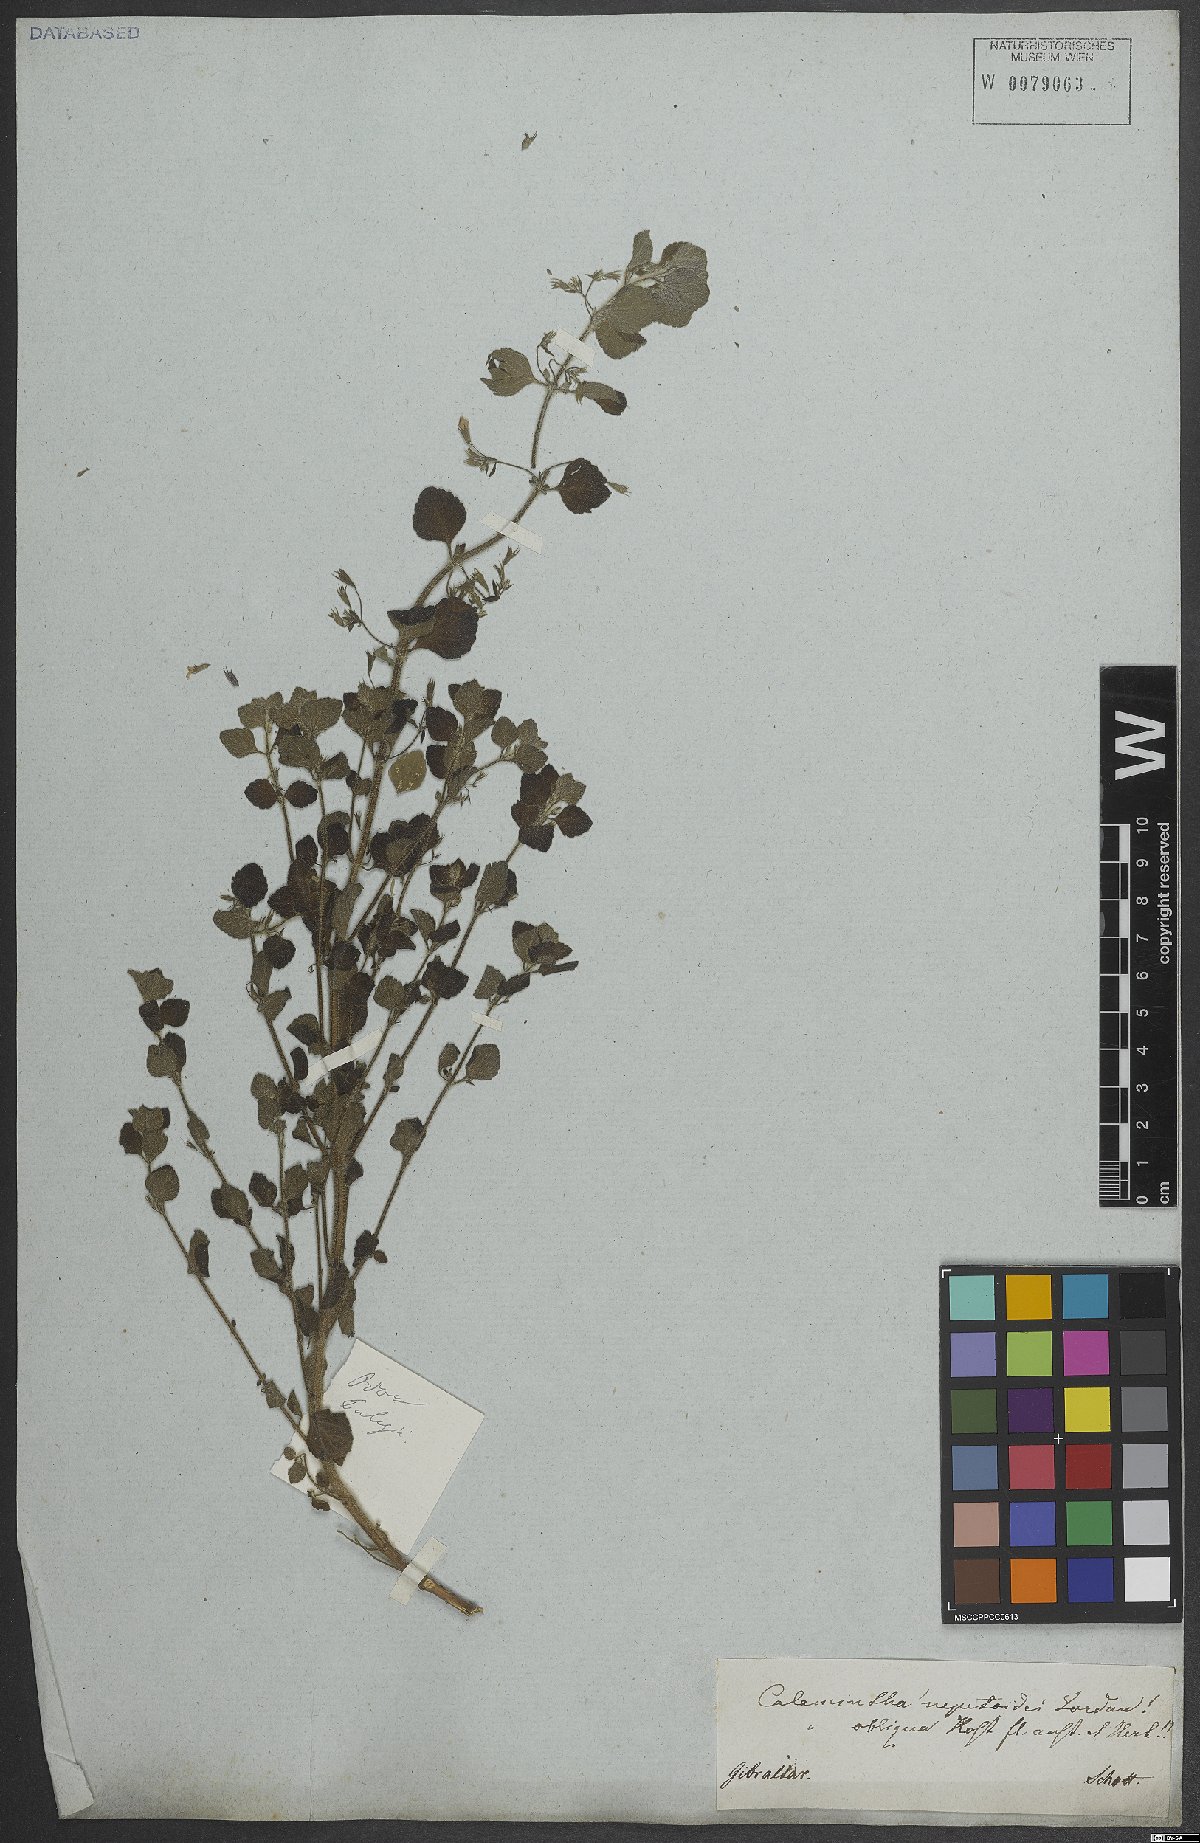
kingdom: Plantae
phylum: Tracheophyta
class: Magnoliopsida
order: Lamiales
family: Lamiaceae
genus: Clinopodium
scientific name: Clinopodium nepeta
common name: Lesser calamint
